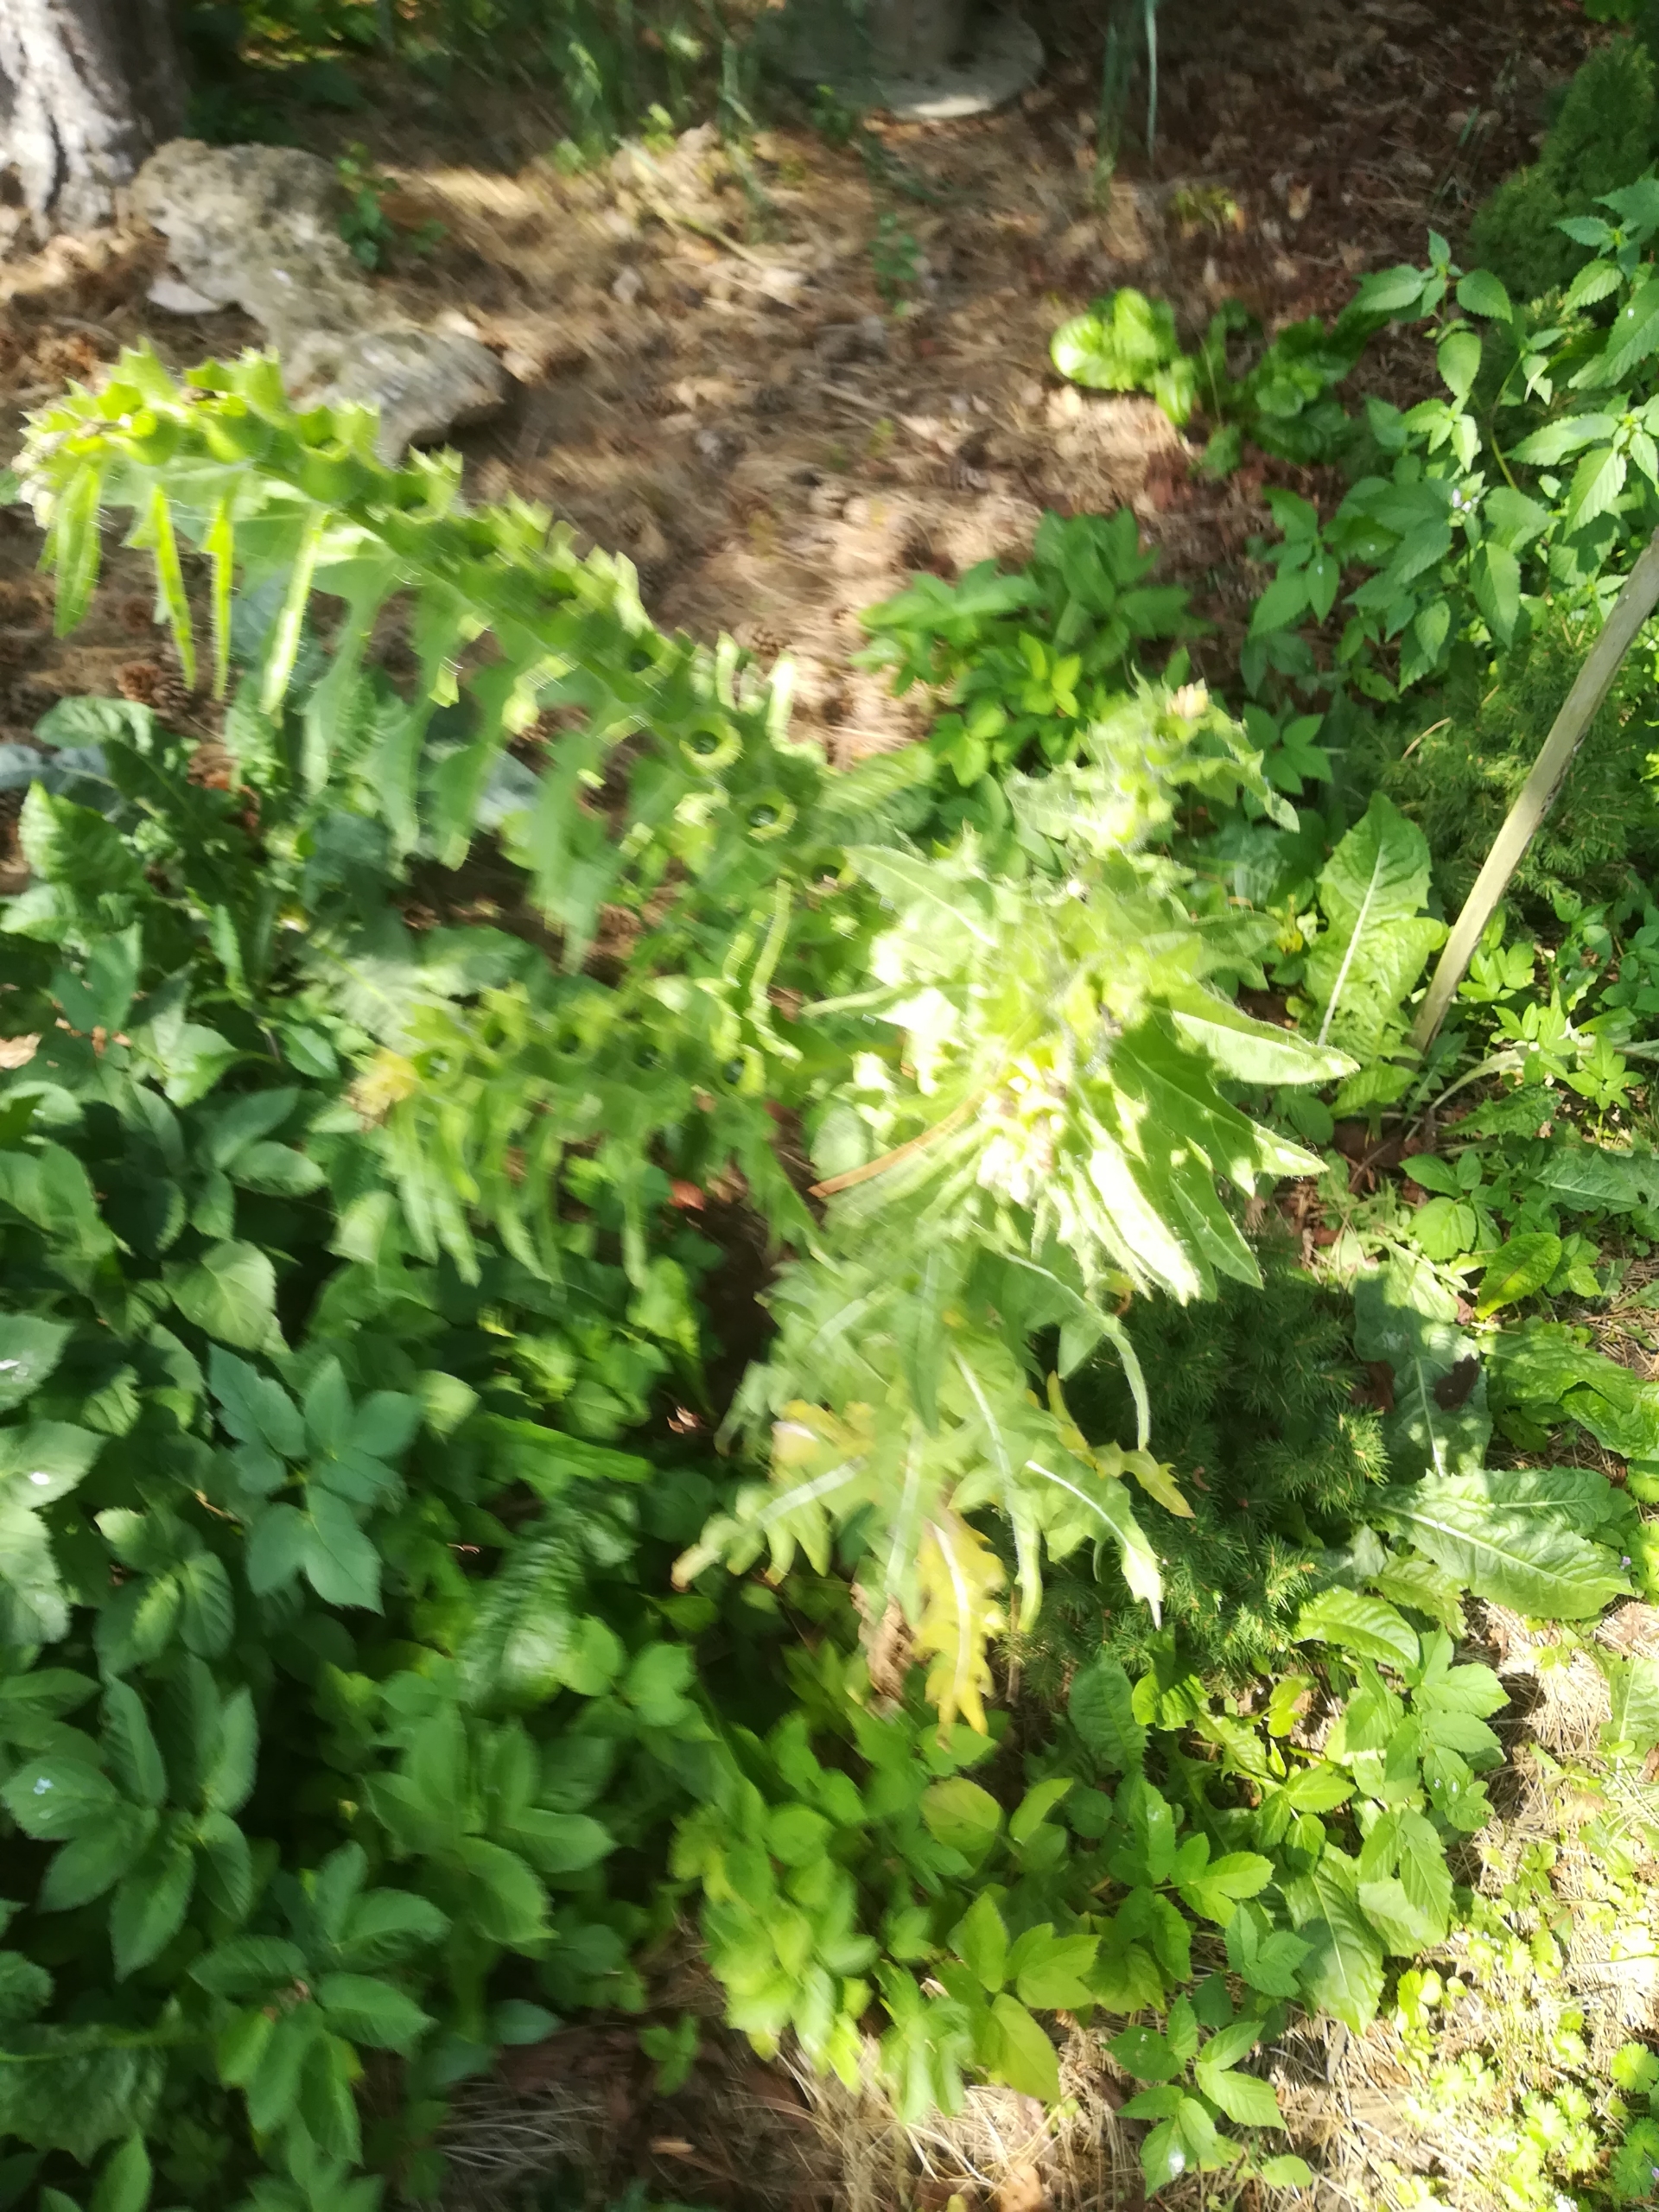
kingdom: Plantae
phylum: Tracheophyta
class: Magnoliopsida
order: Solanales
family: Solanaceae
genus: Hyoscyamus
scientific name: Hyoscyamus niger
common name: Bulmeurt
